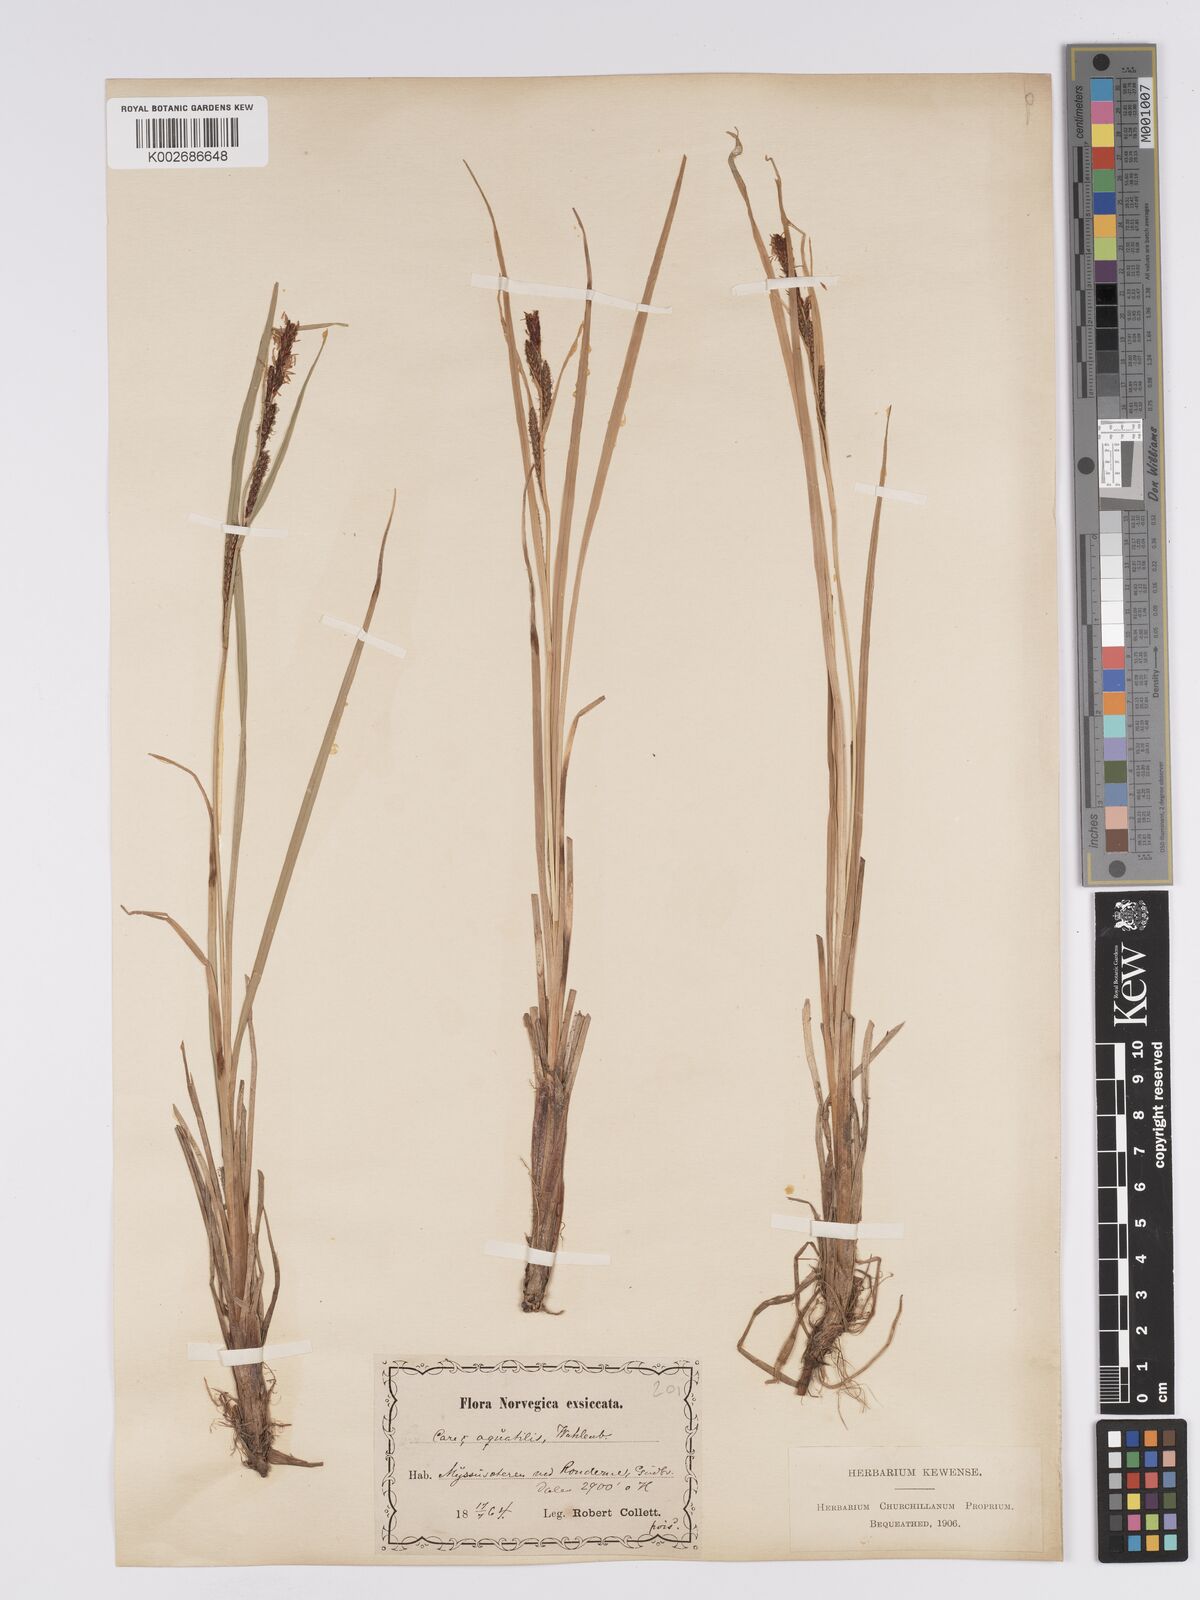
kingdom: Plantae
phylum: Tracheophyta
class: Liliopsida
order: Poales
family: Cyperaceae
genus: Carex
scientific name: Carex aquatilis
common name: Water sedge
